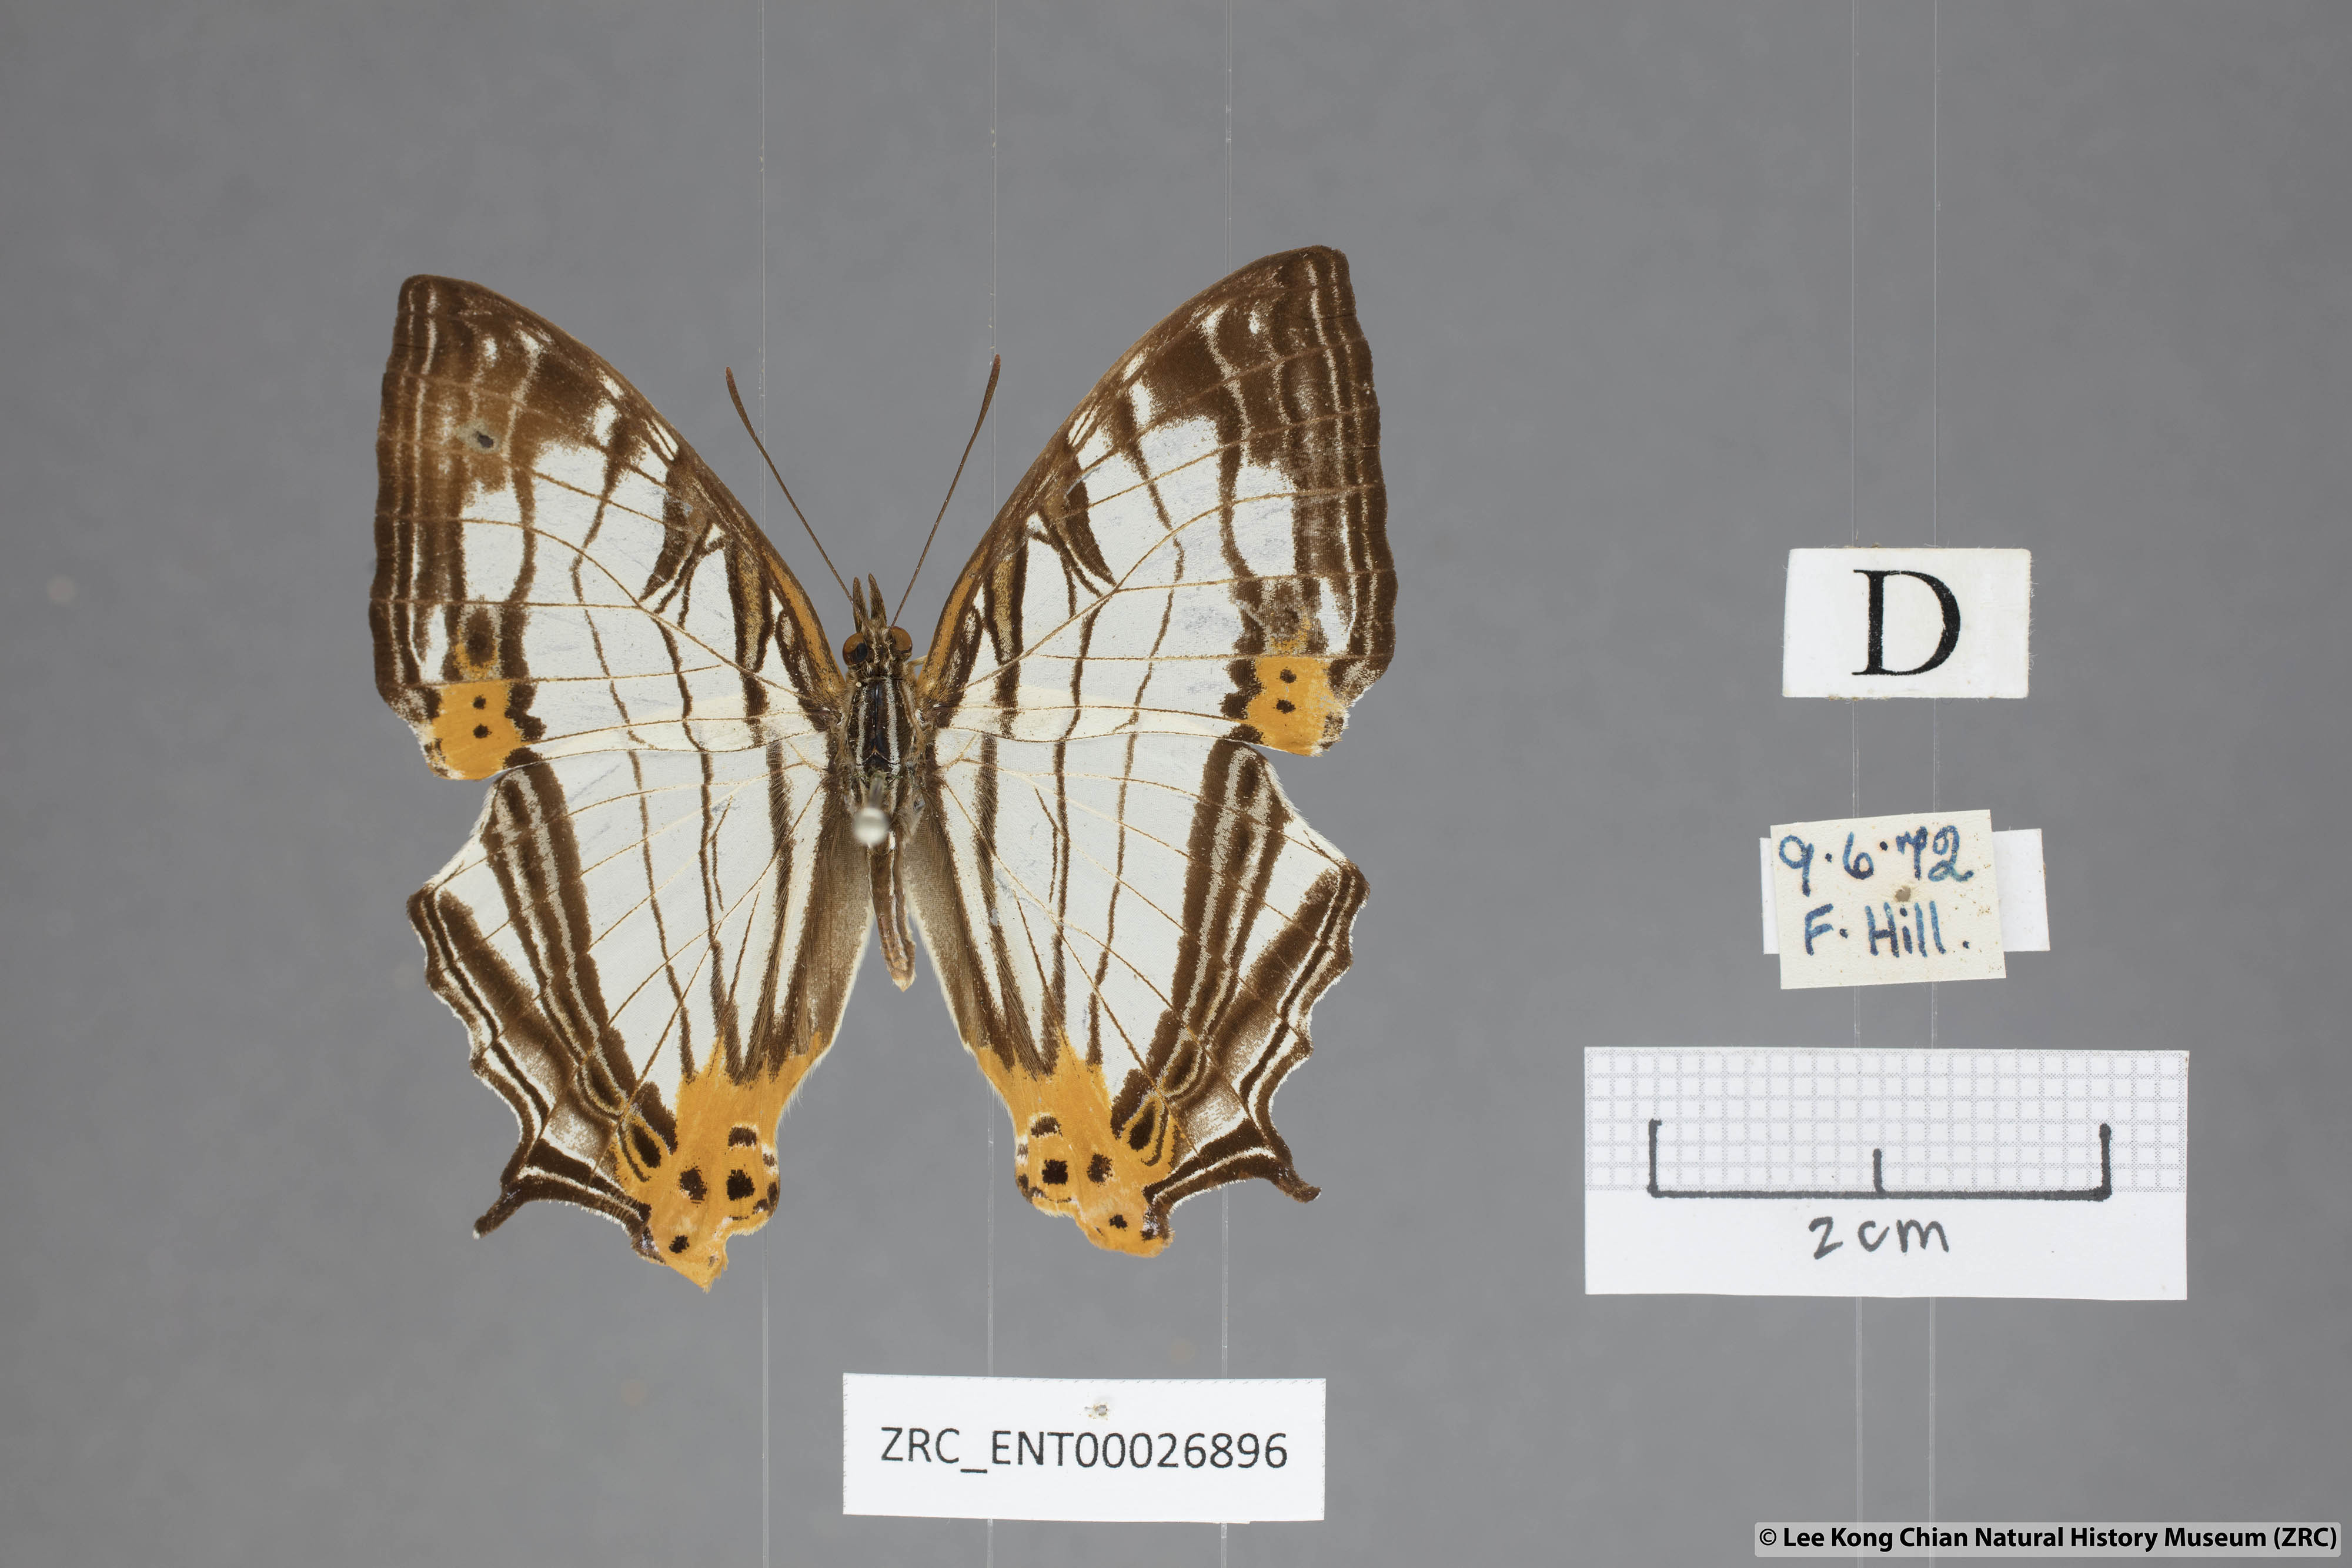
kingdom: Animalia
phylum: Arthropoda
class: Insecta
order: Lepidoptera
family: Nymphalidae
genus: Cyrestis
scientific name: Cyrestis maenalis
